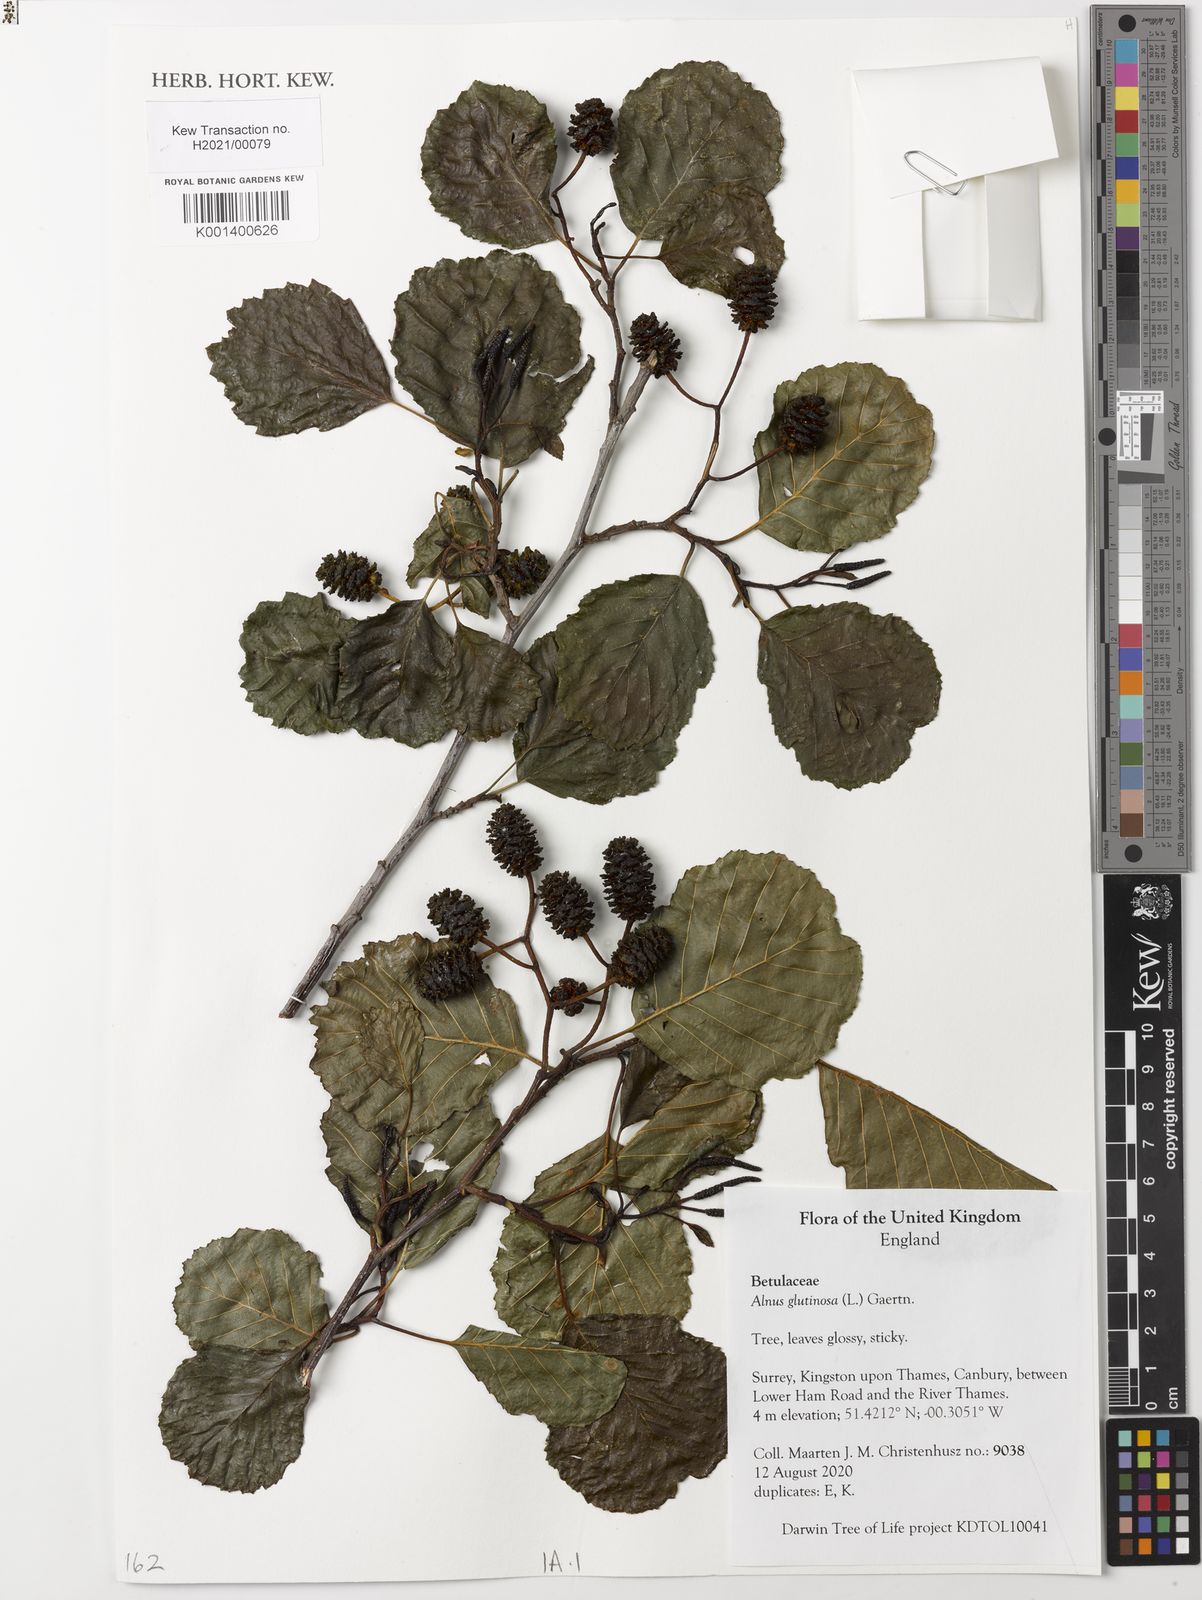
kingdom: Plantae
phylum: Tracheophyta
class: Magnoliopsida
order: Fagales
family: Betulaceae
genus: Alnus
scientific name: Alnus glutinosa
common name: Black alder
